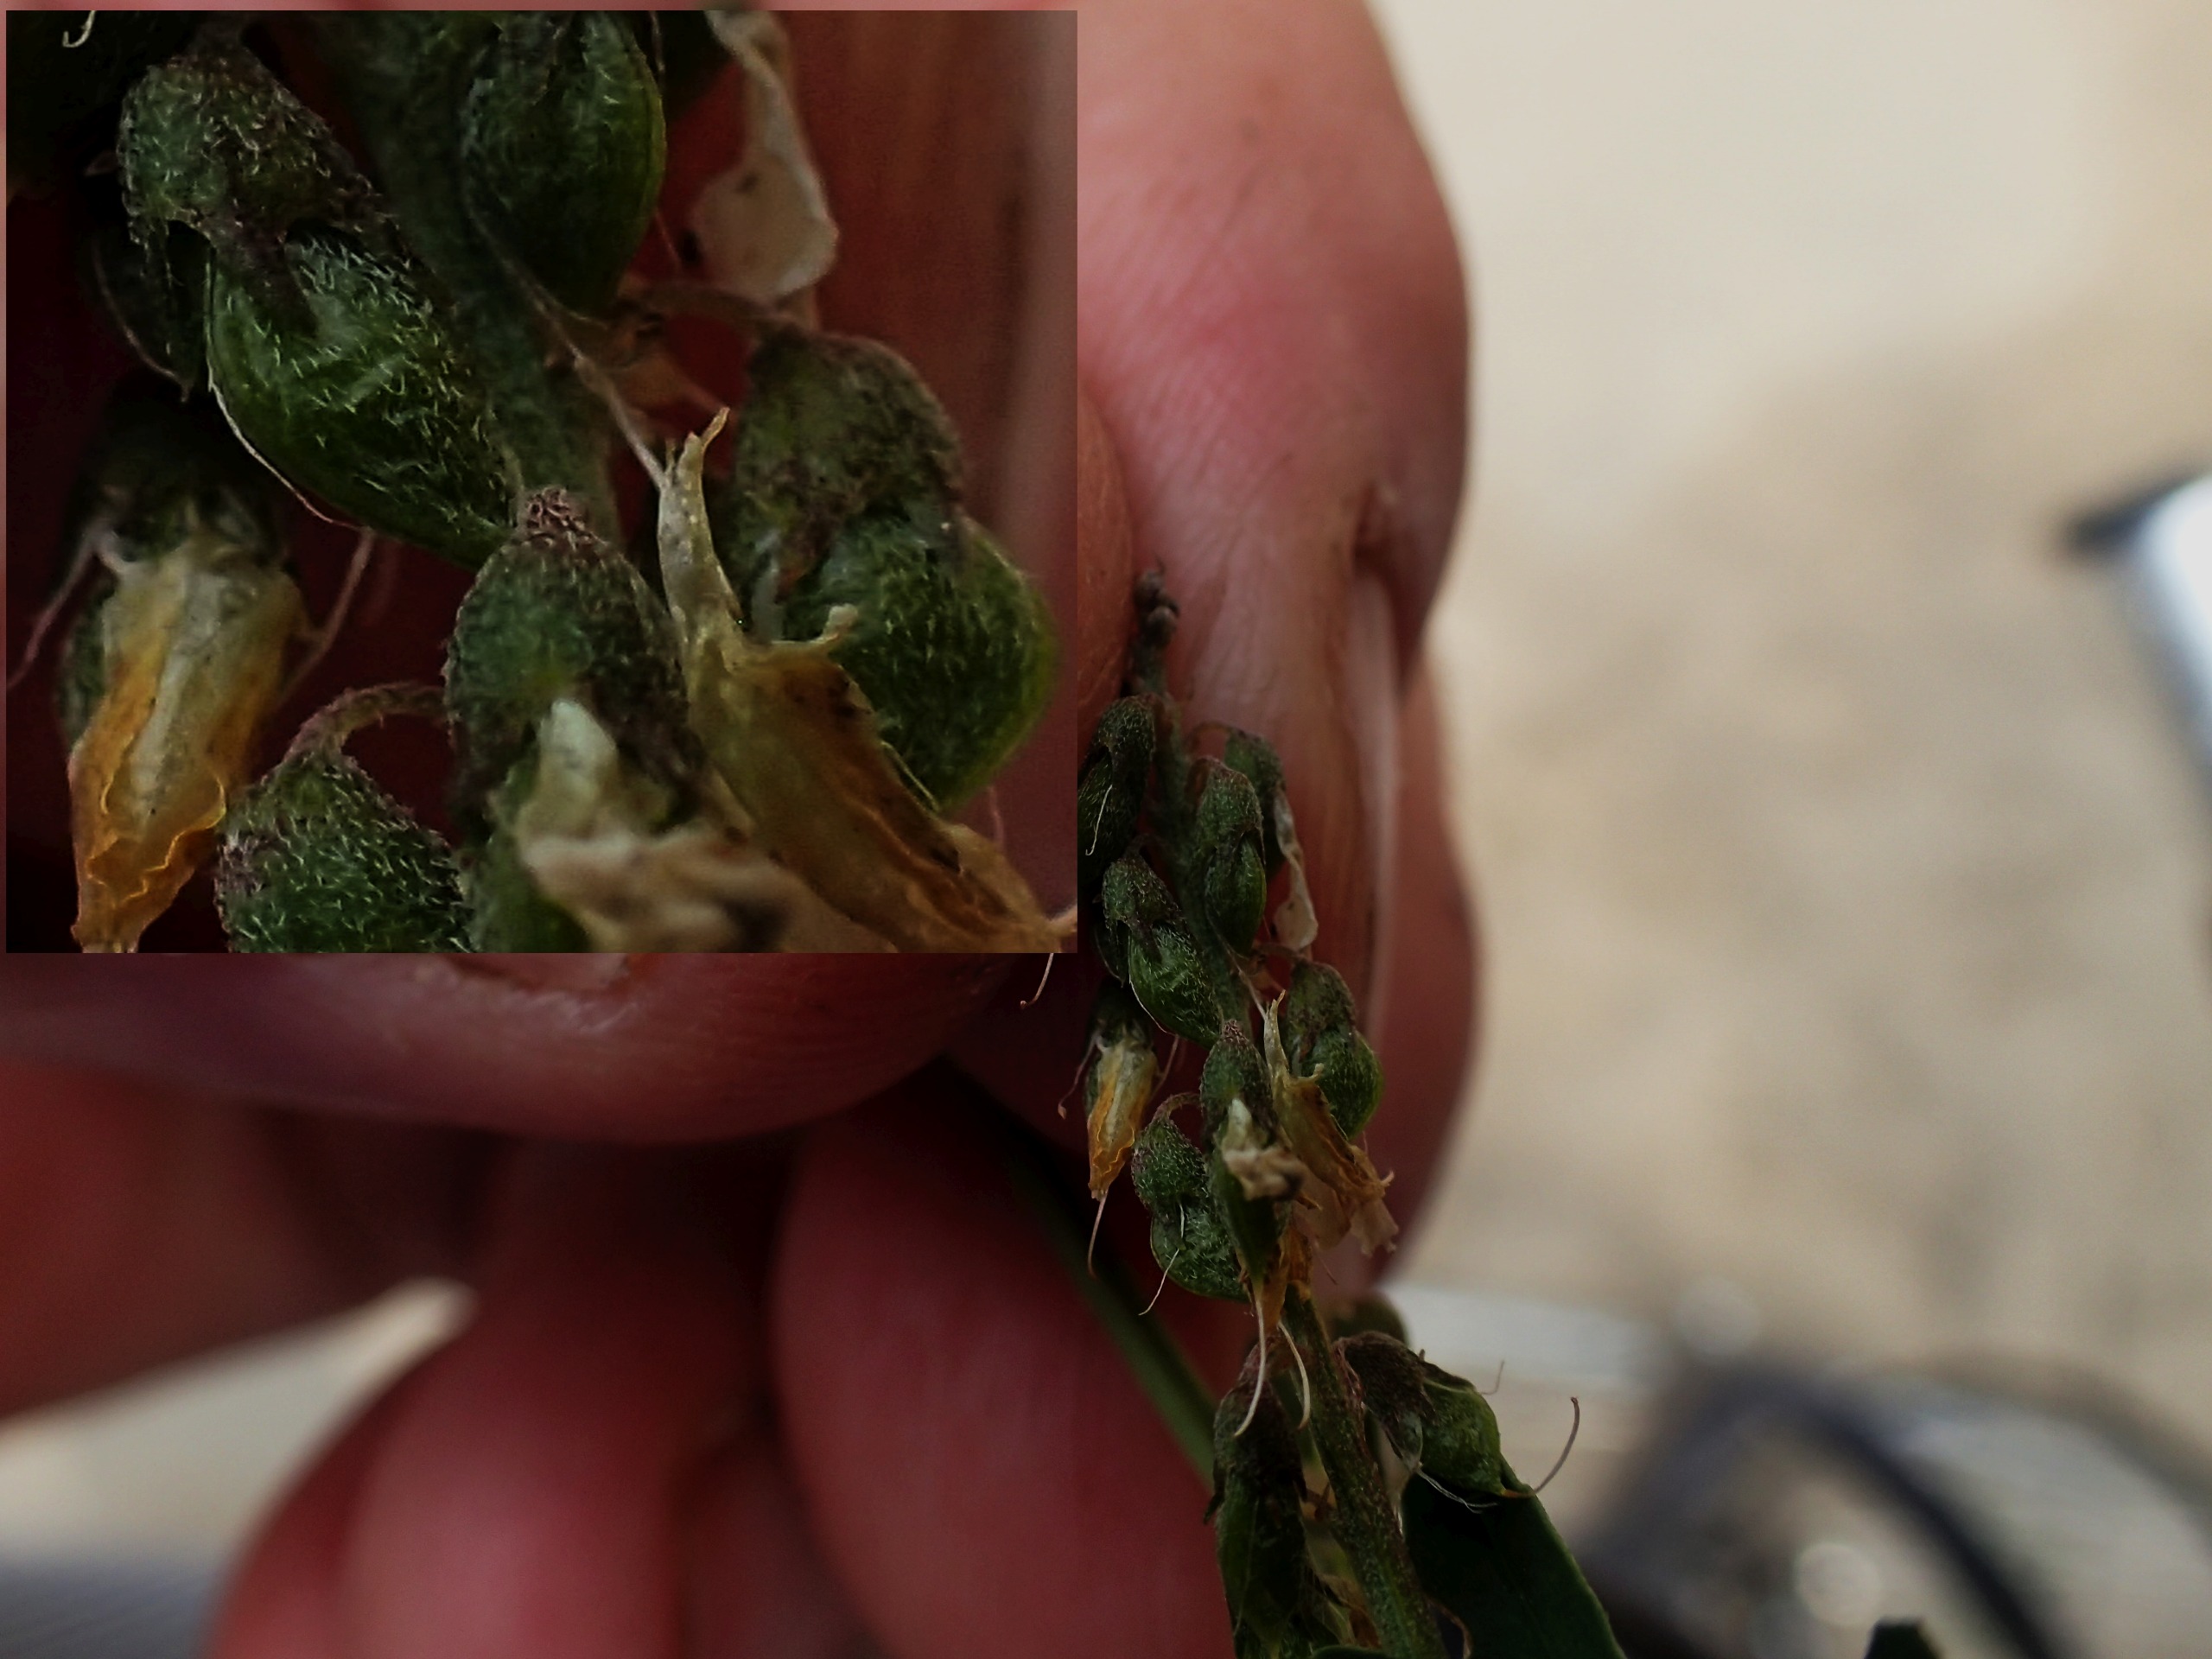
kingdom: Plantae
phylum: Tracheophyta
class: Magnoliopsida
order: Fabales
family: Fabaceae
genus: Melilotus
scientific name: Melilotus altissimus
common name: Høj stenkløver
